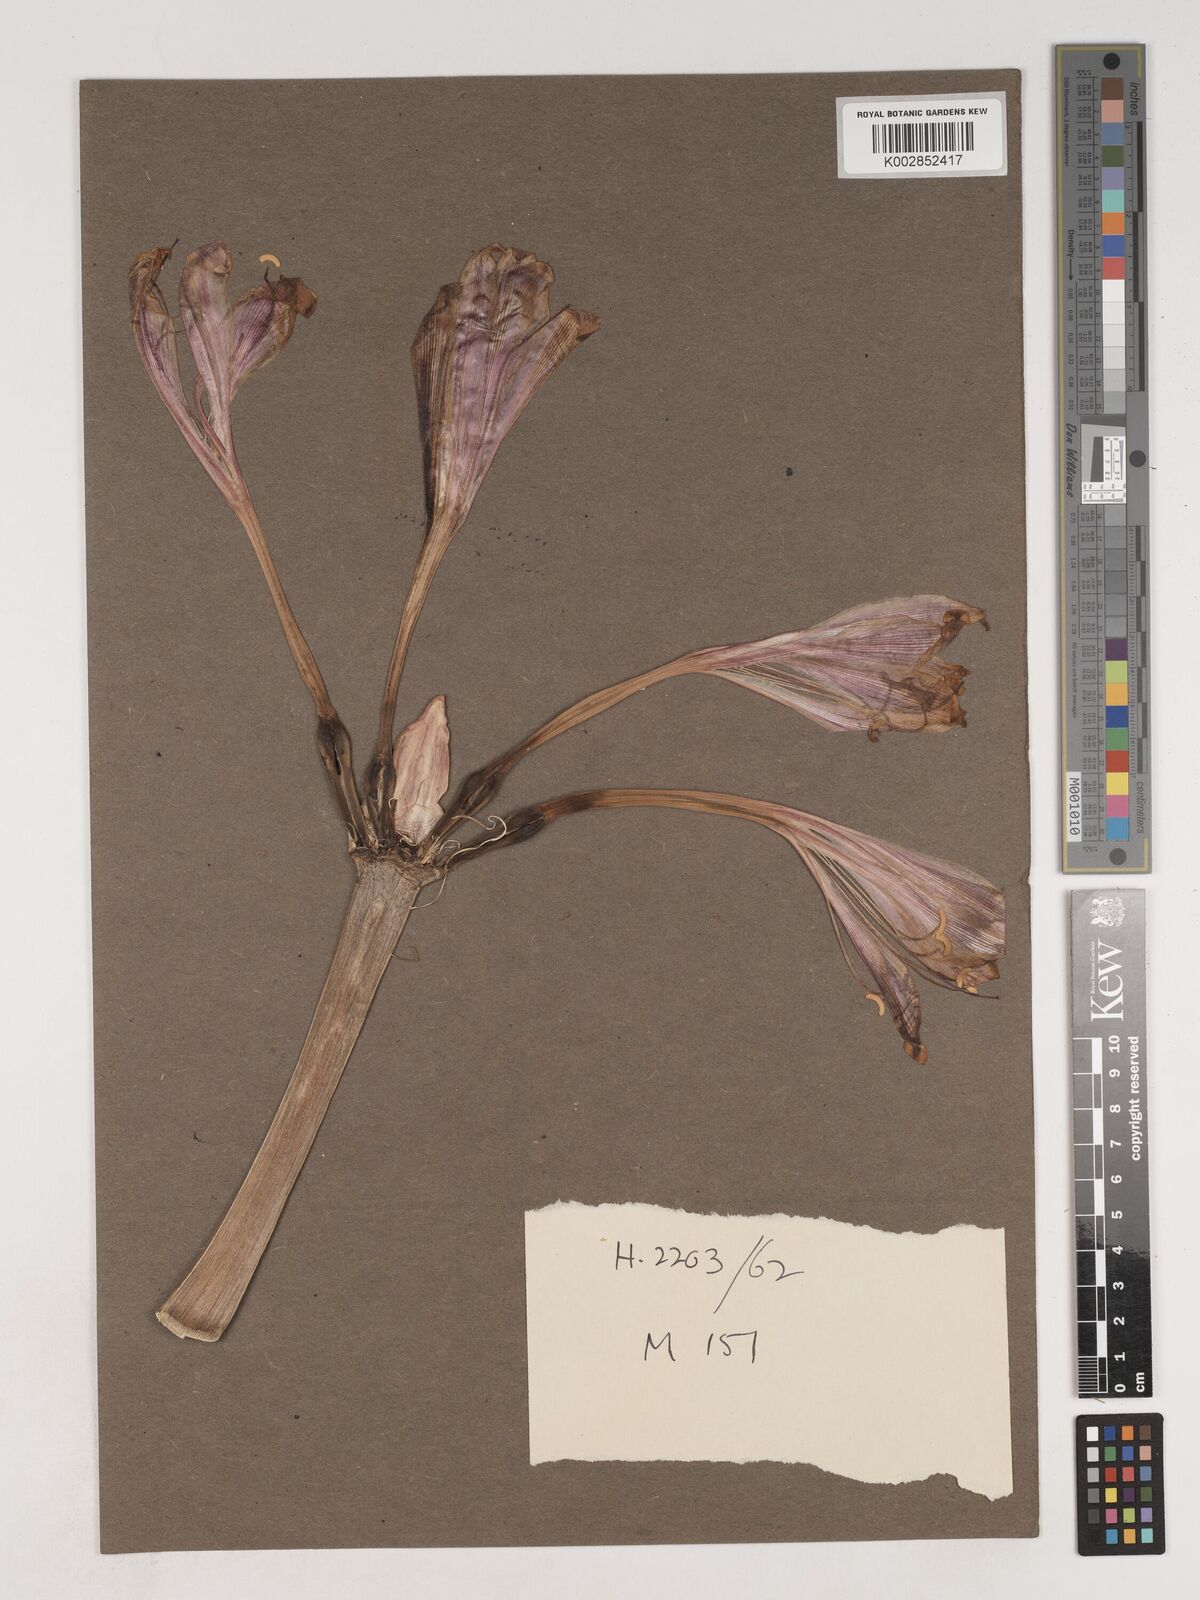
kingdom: Plantae
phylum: Tracheophyta
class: Liliopsida
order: Asparagales
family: Amaryllidaceae
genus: Crinum
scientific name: Crinum graminicola
